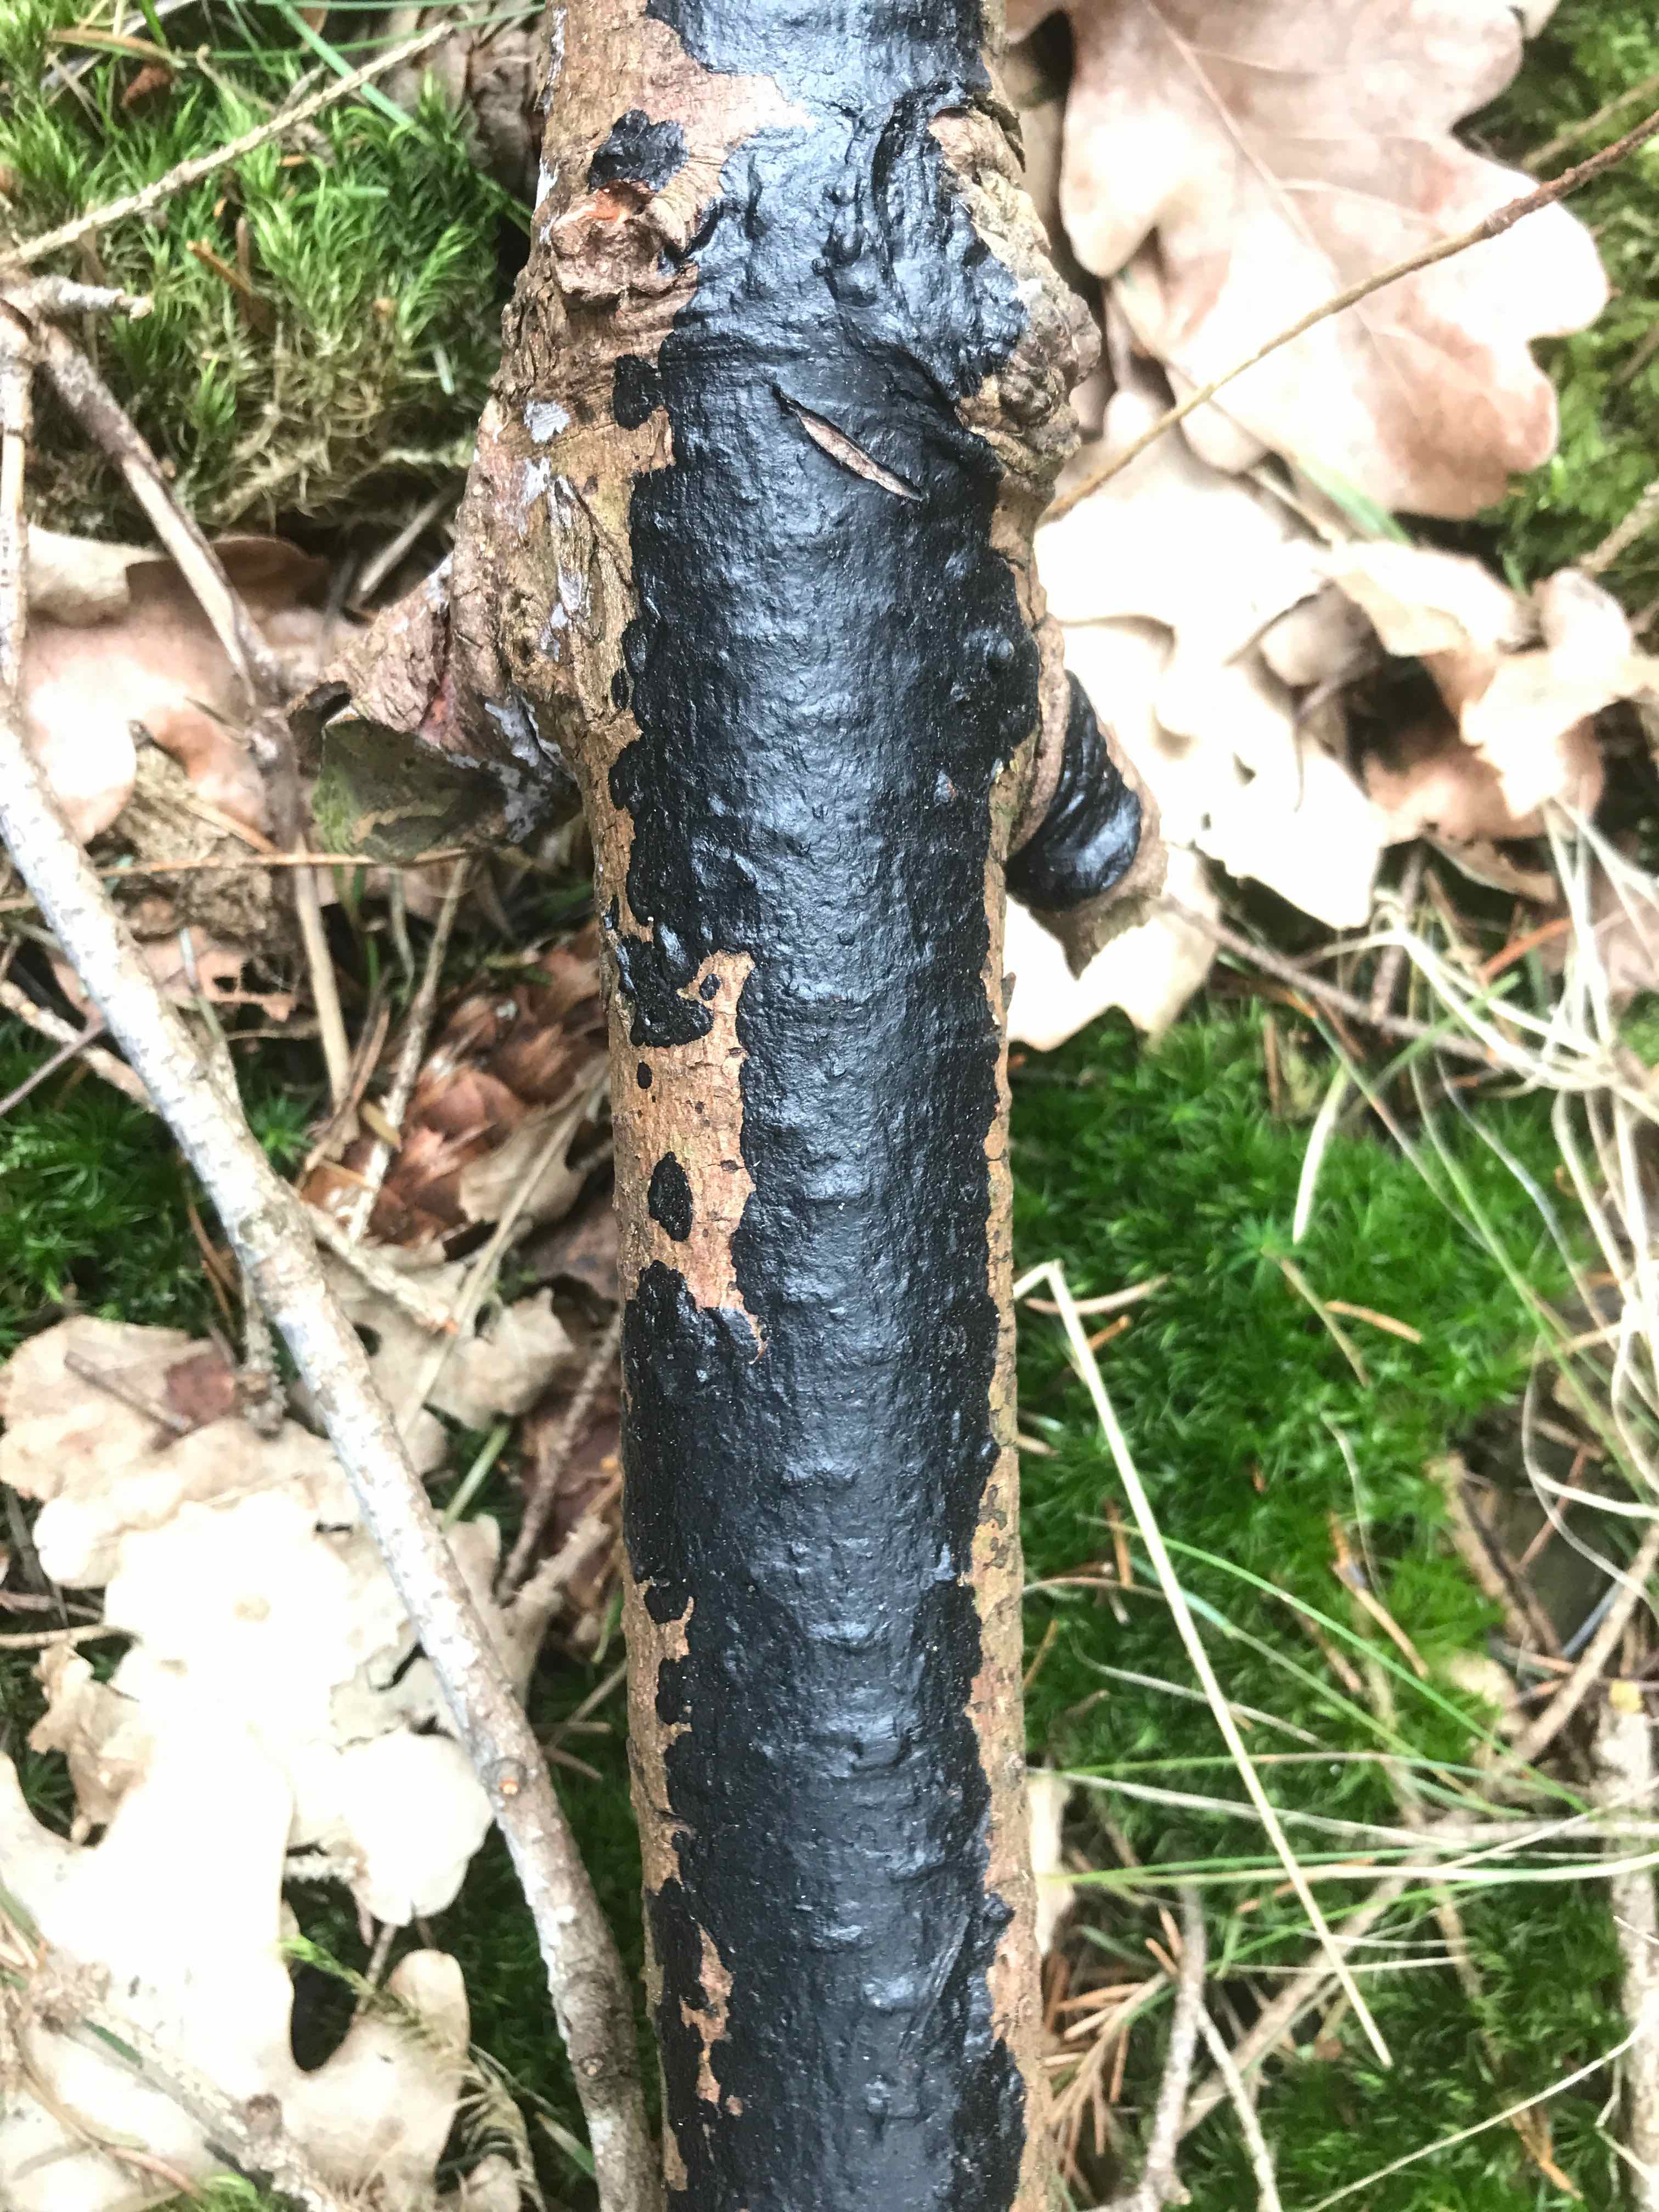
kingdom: Fungi
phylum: Basidiomycota
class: Agaricomycetes
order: Auriculariales
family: Auriculariaceae
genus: Exidia
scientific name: Exidia pithya
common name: gran-bævretop
